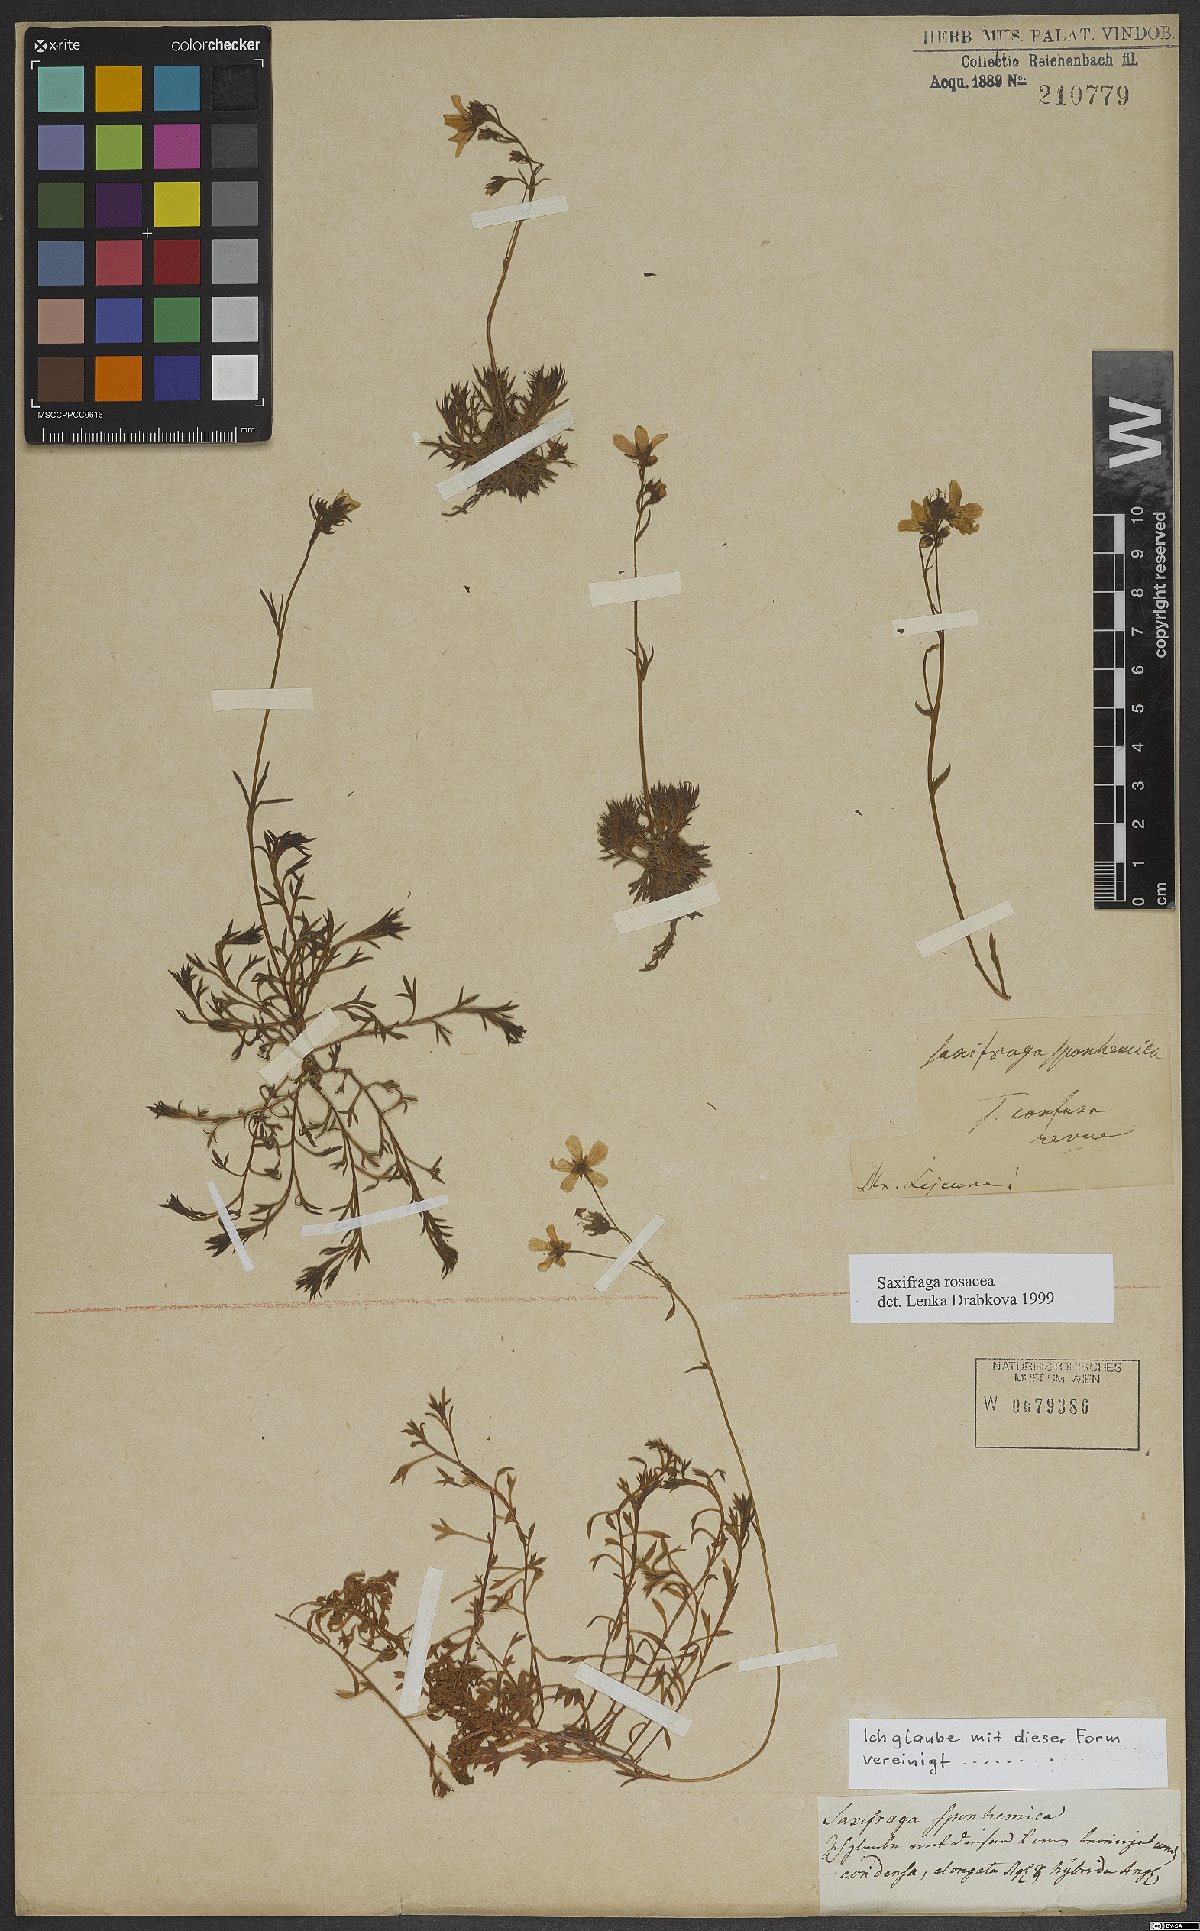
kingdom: Plantae
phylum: Tracheophyta
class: Magnoliopsida
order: Saxifragales
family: Saxifragaceae
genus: Saxifraga
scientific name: Saxifraga rosacea
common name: Irish saxifrage
